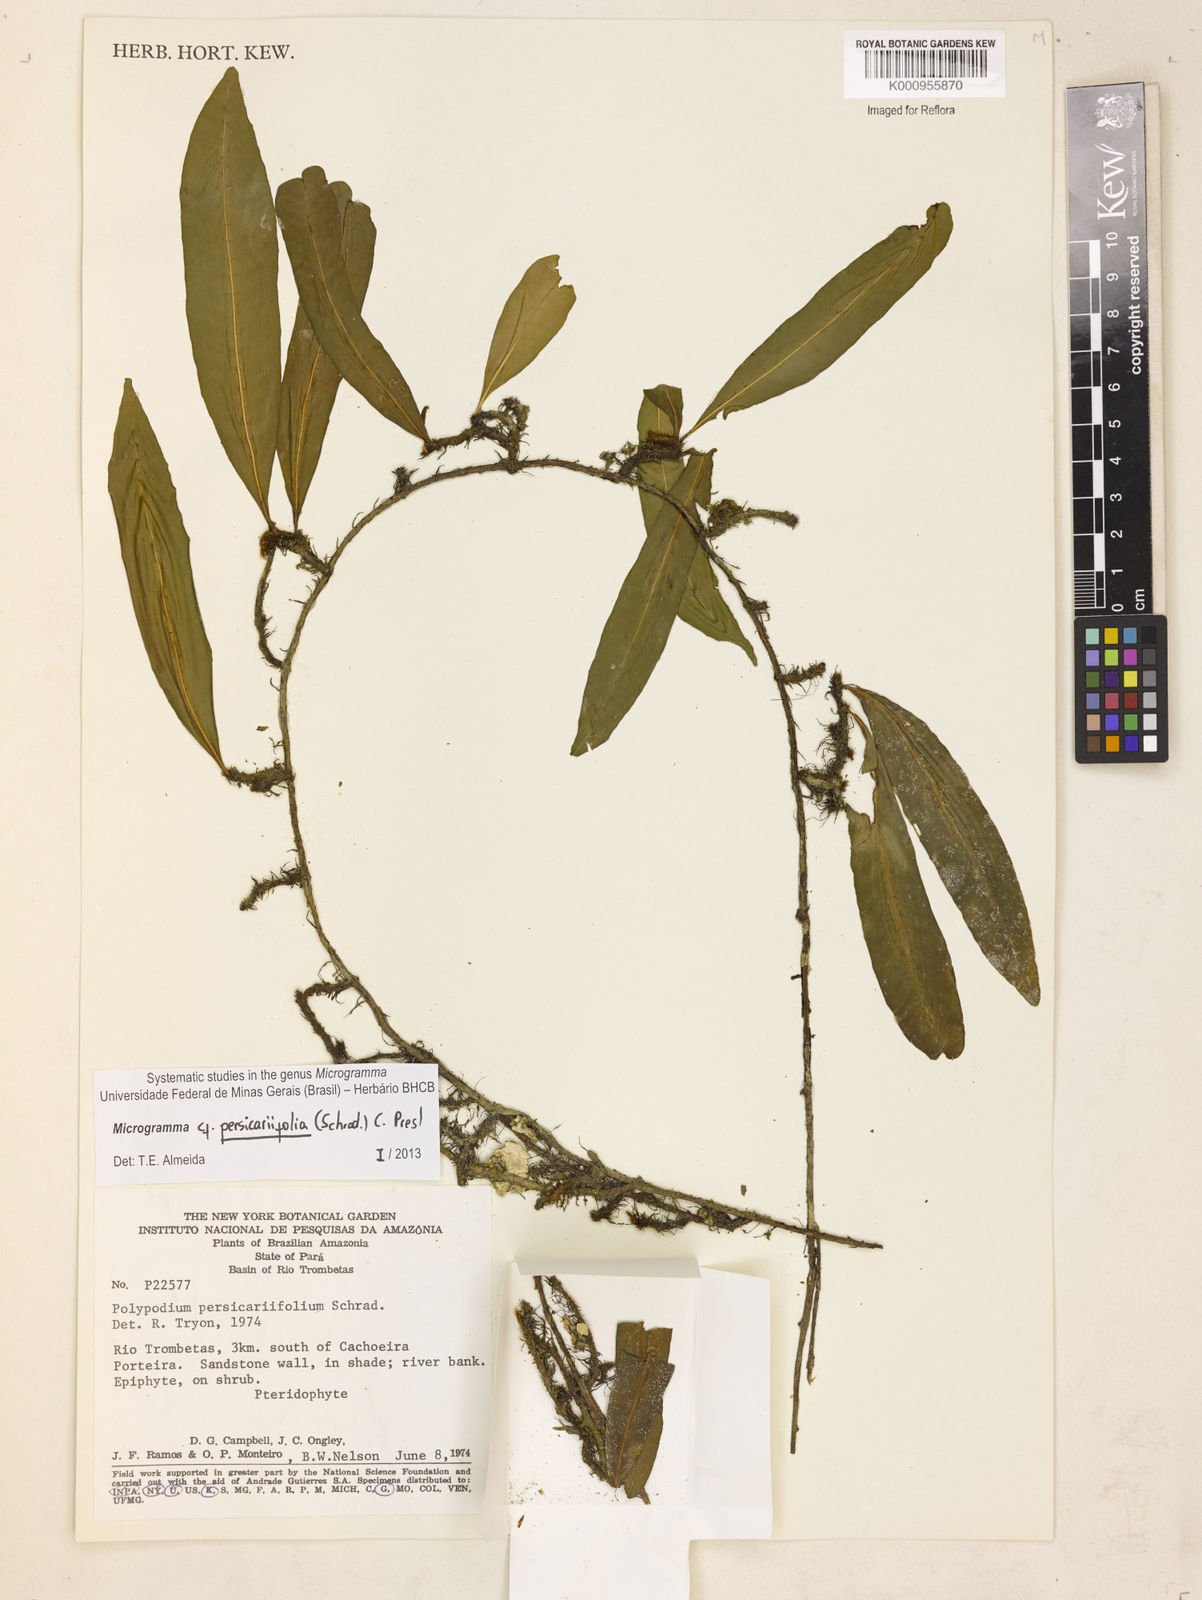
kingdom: Plantae
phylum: Tracheophyta
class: Polypodiopsida
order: Polypodiales
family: Polypodiaceae
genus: Microgramma
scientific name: Microgramma persicariifolia
